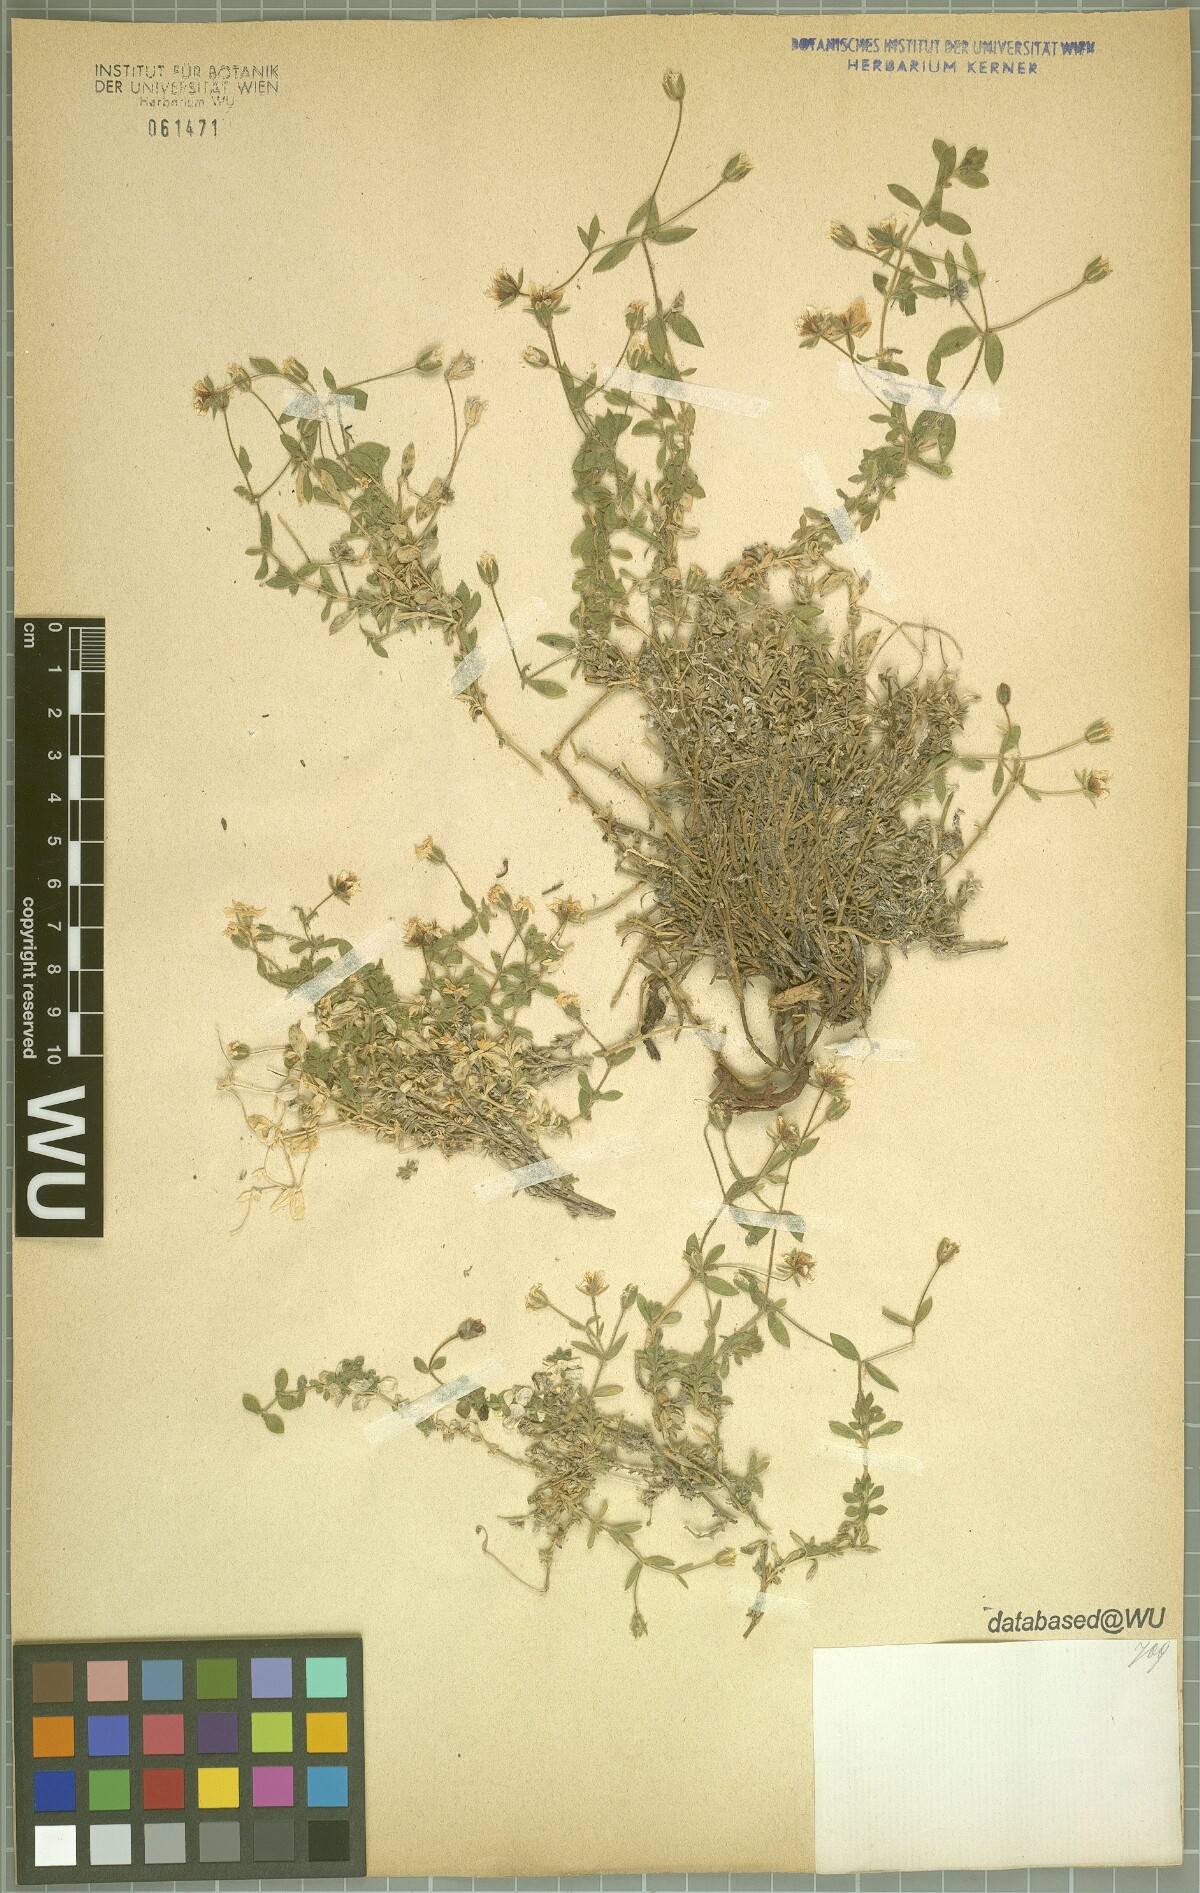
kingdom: Plantae
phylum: Tracheophyta
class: Magnoliopsida
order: Caryophyllales
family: Caryophyllaceae
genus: Arenaria
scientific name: Arenaria huteri
